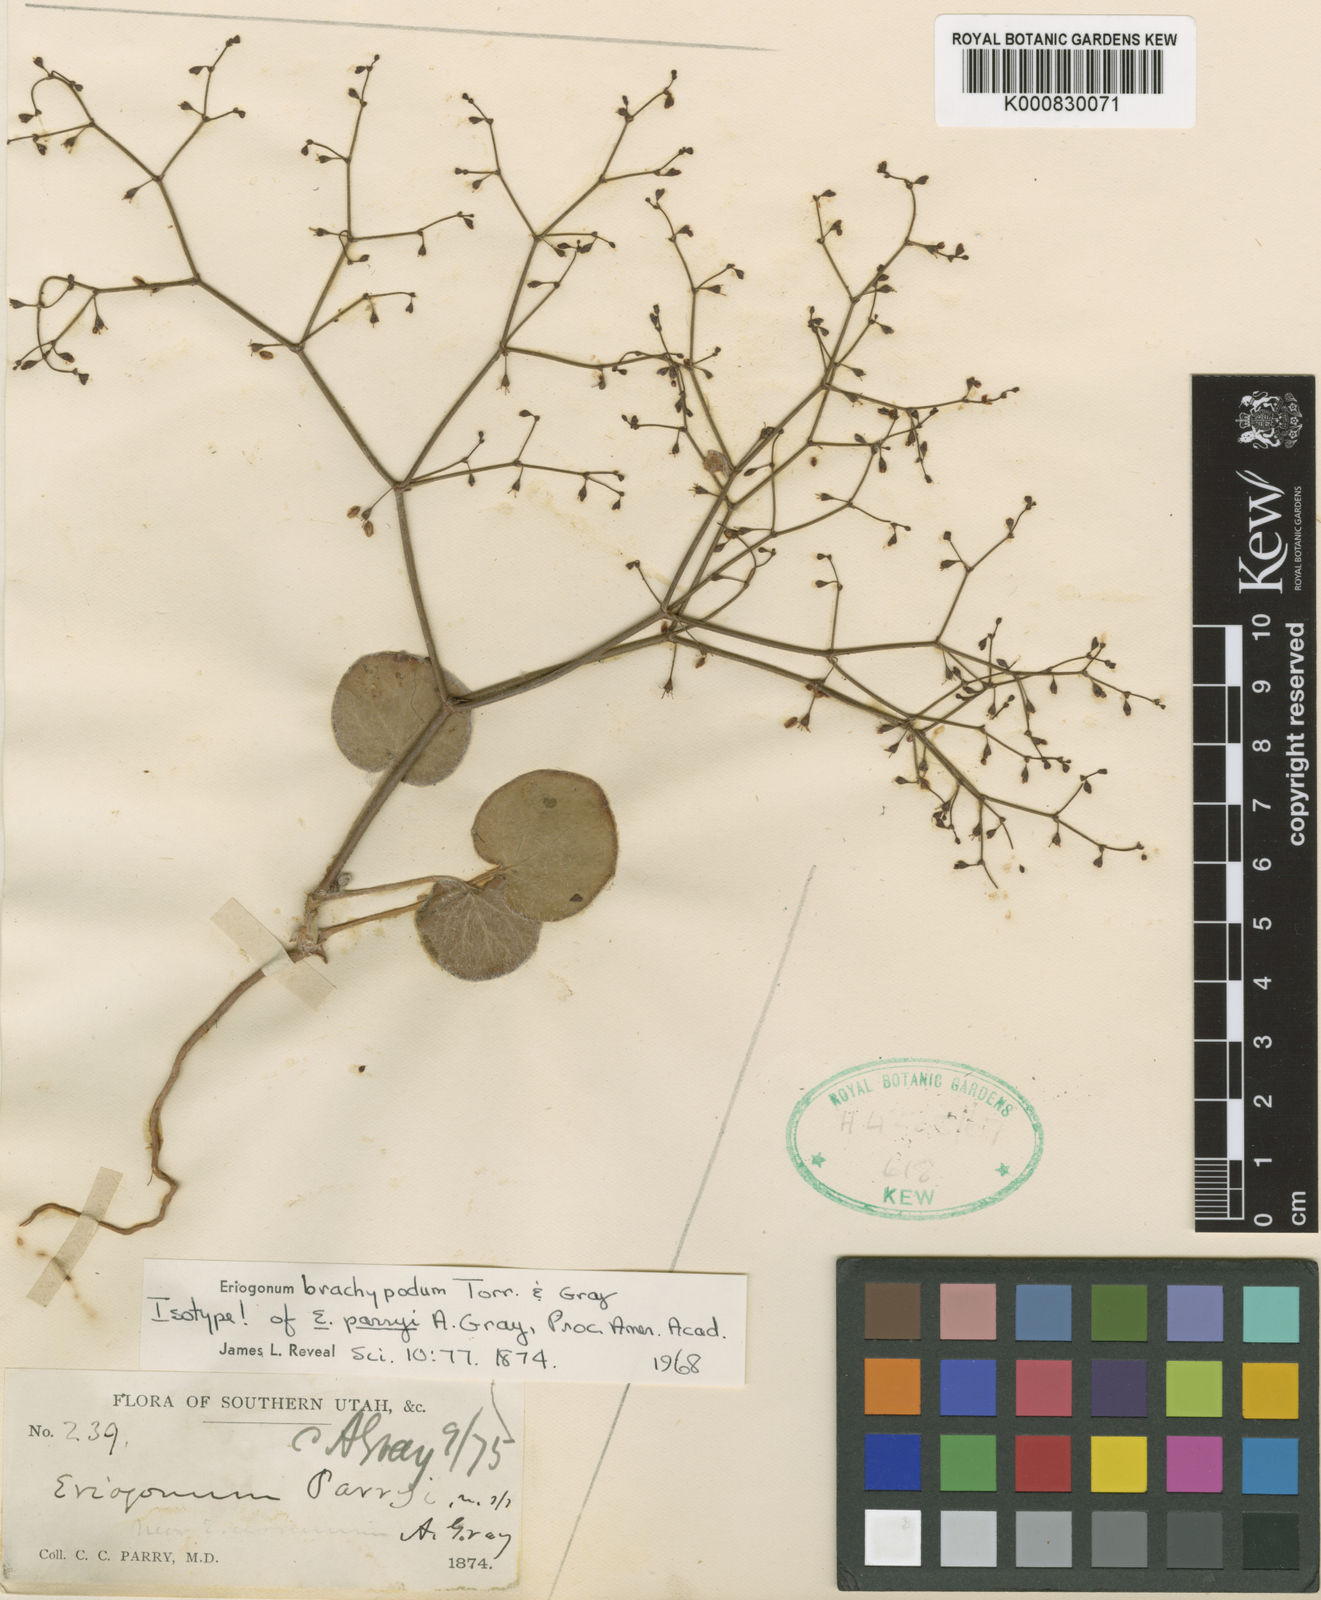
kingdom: Plantae
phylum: Tracheophyta
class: Magnoliopsida
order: Caryophyllales
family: Polygonaceae
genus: Eriogonum
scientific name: Eriogonum brachypodum
